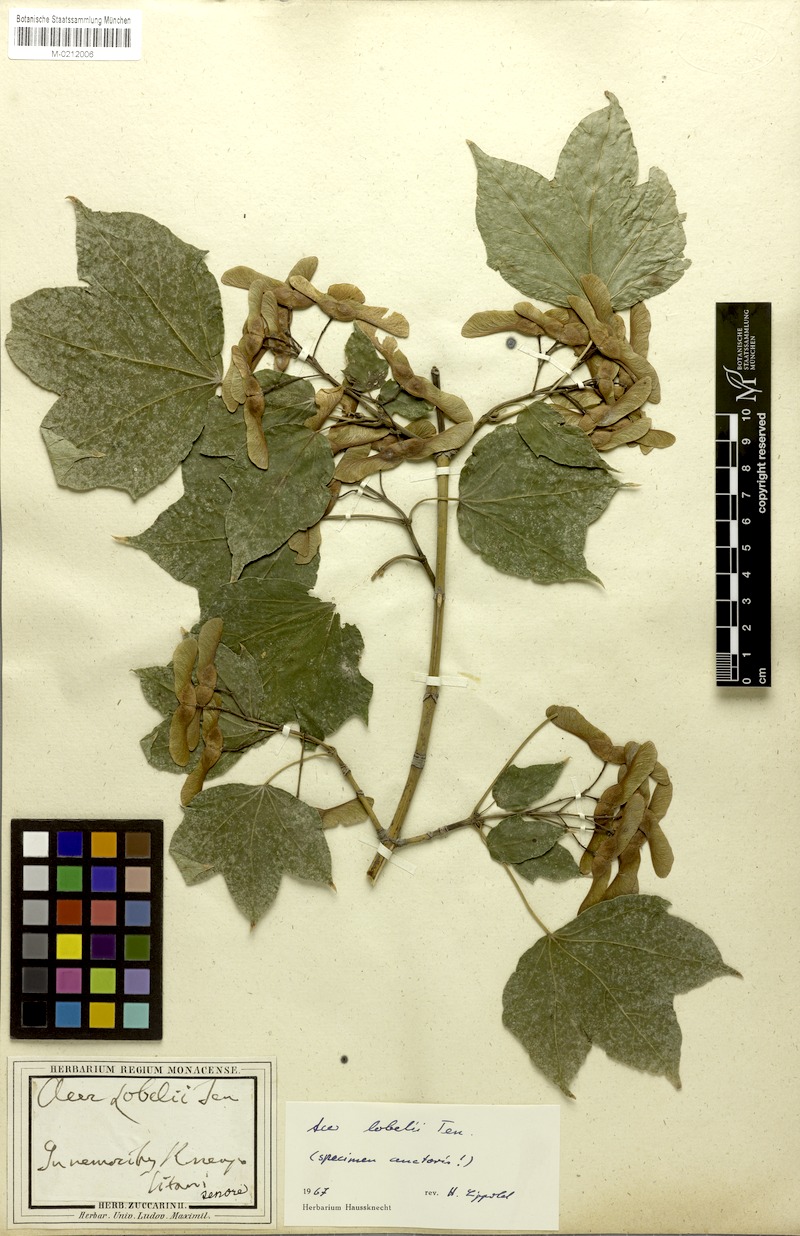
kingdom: Plantae
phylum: Tracheophyta
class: Magnoliopsida
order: Sapindales
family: Sapindaceae
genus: Acer
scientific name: Acer lobelii
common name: Lobel's maple
